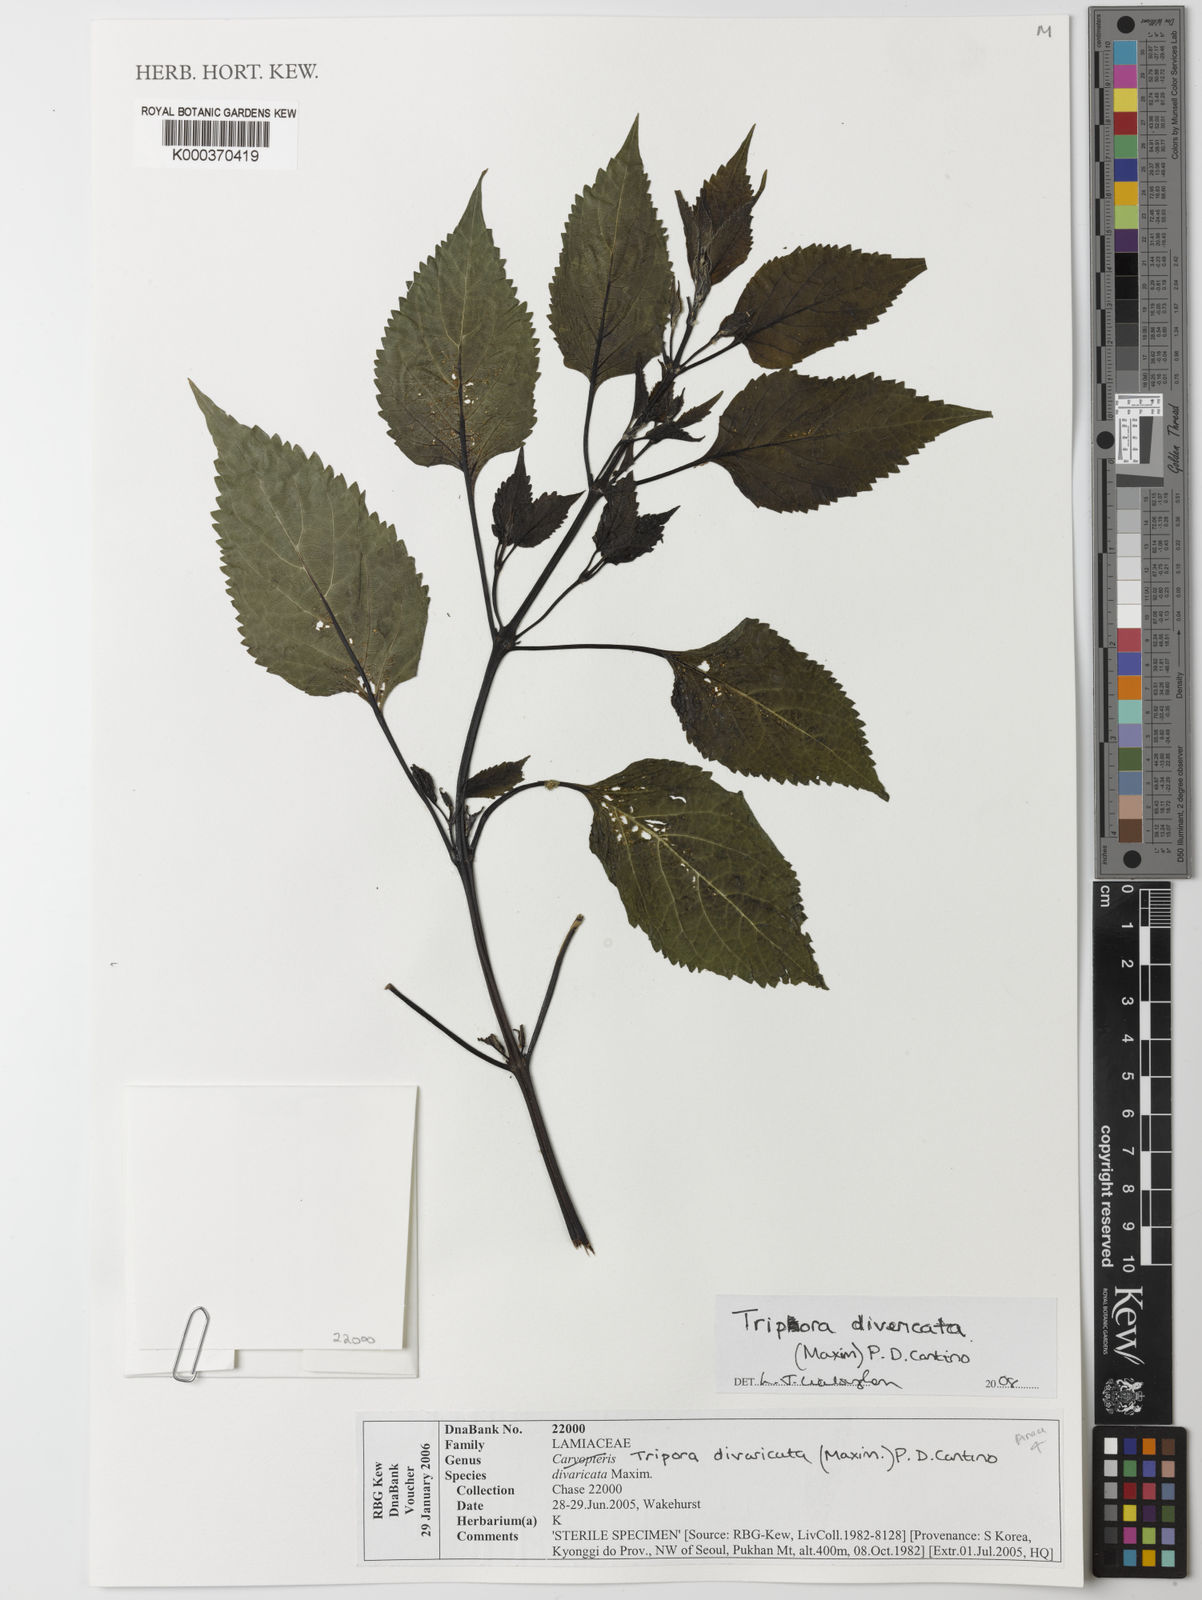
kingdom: Plantae
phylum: Tracheophyta
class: Magnoliopsida
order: Lamiales
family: Lamiaceae
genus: Tripora
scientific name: Tripora divaricata
